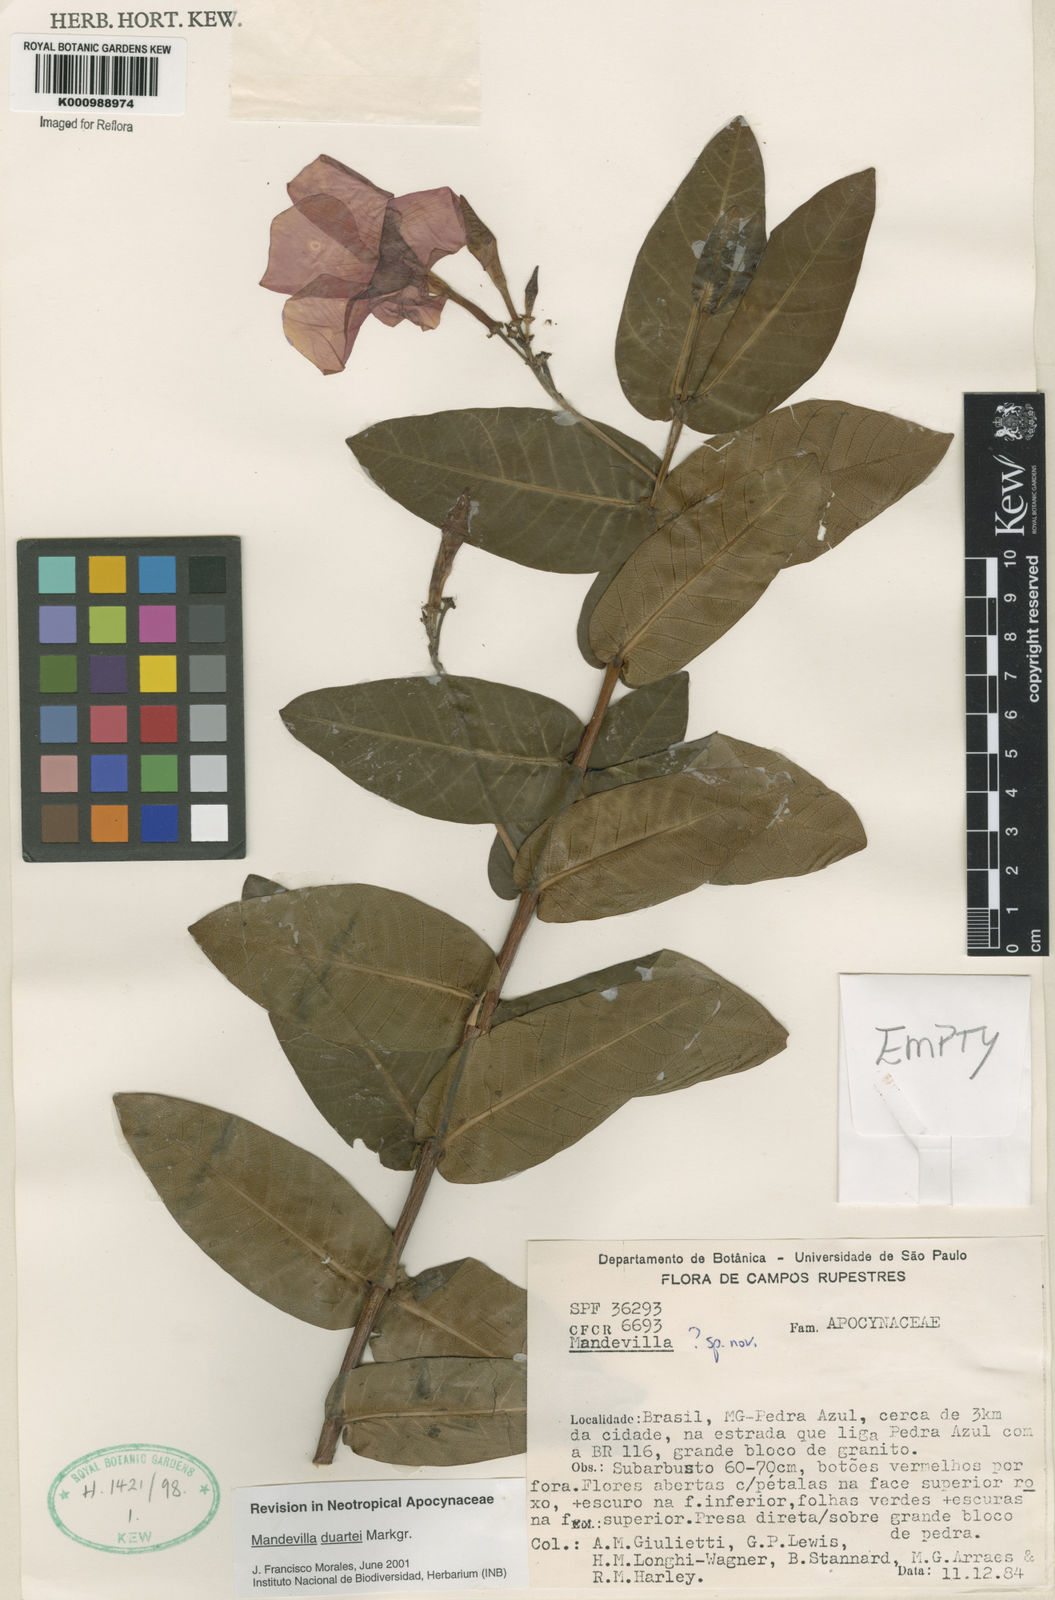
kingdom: Plantae
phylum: Tracheophyta
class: Magnoliopsida
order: Gentianales
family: Apocynaceae
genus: Mandevilla
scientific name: Mandevilla duartei
